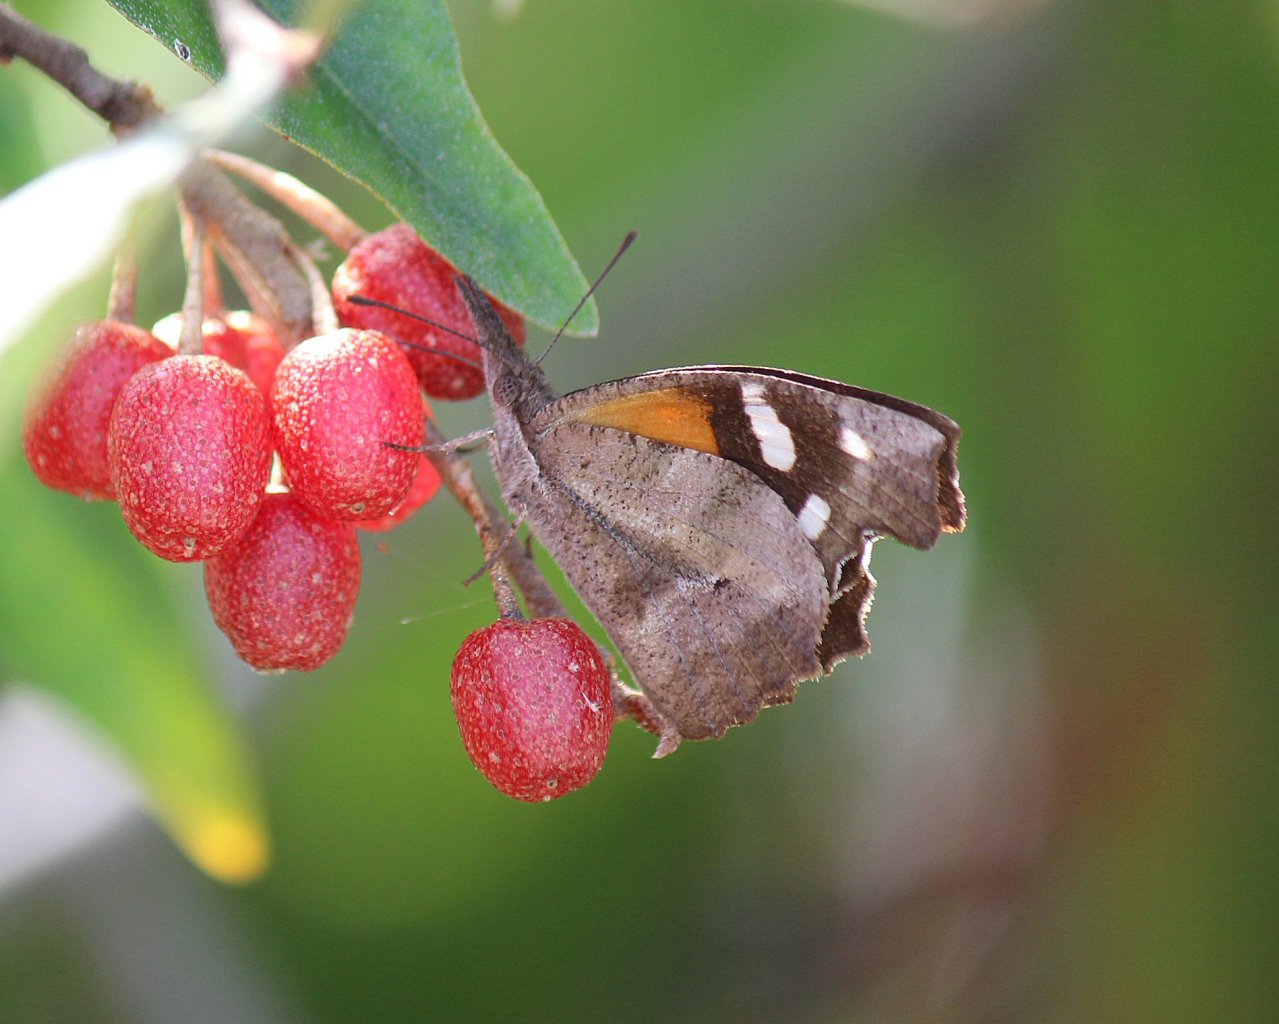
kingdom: Animalia
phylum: Arthropoda
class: Insecta
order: Lepidoptera
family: Nymphalidae
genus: Libytheana
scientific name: Libytheana carinenta
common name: American Snout
